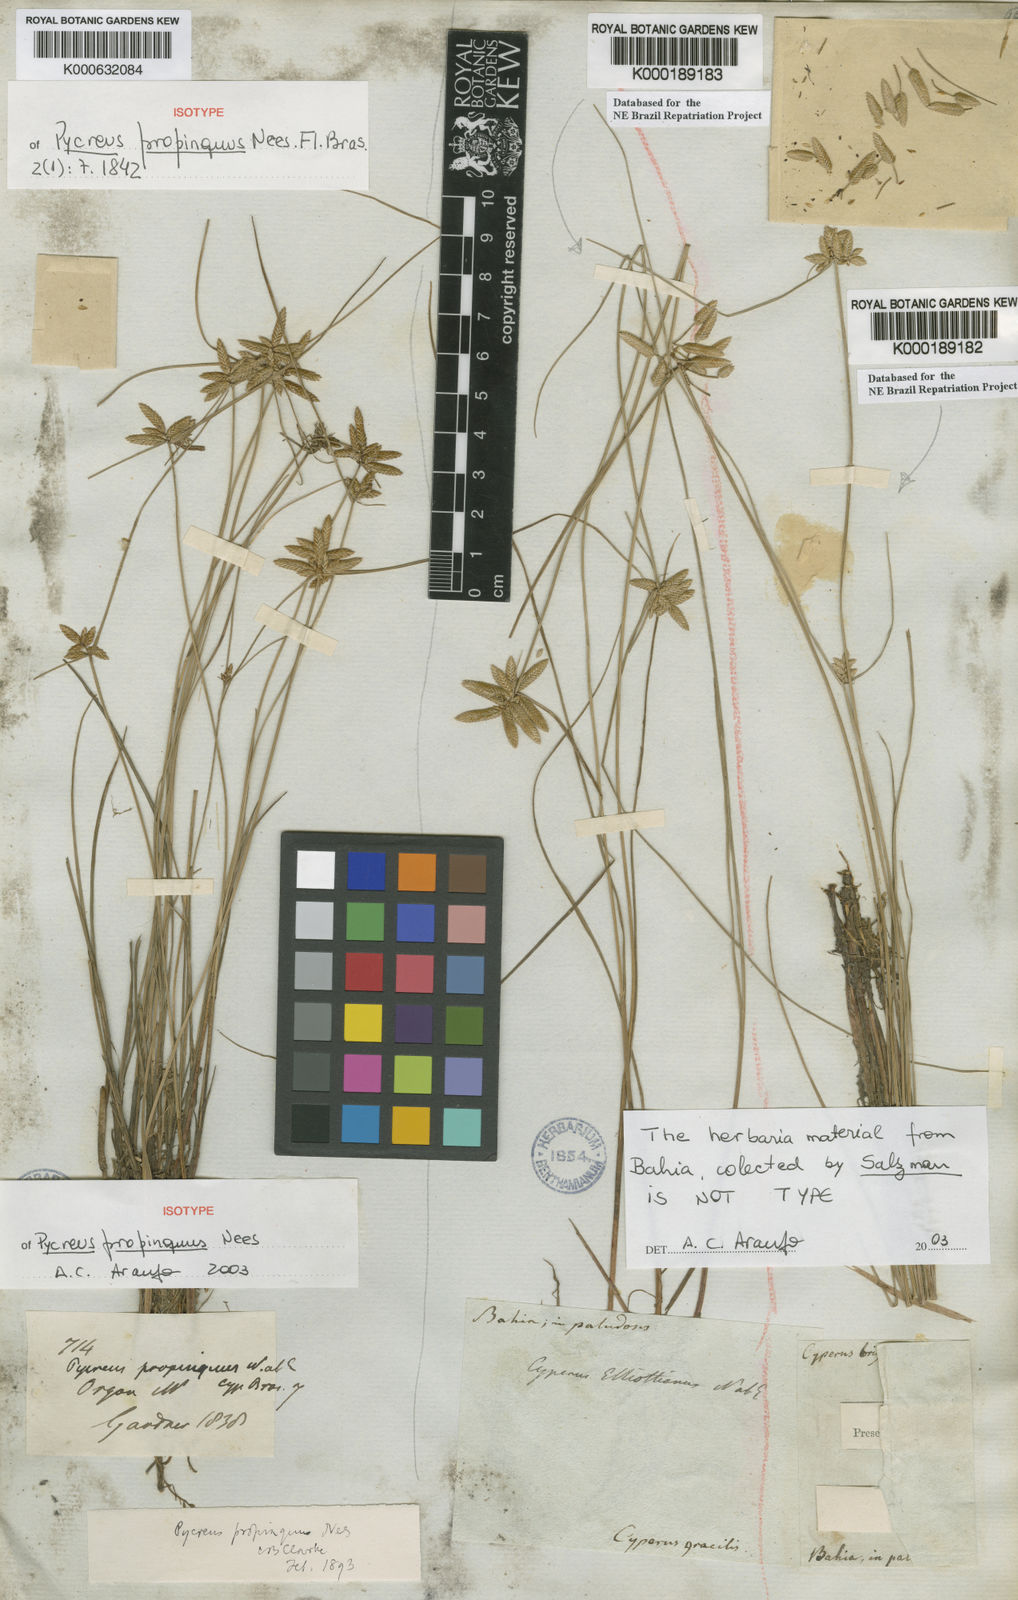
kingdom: Plantae
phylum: Tracheophyta
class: Liliopsida
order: Poales
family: Cyperaceae
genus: Cyperus
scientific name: Cyperus lanceolatus
